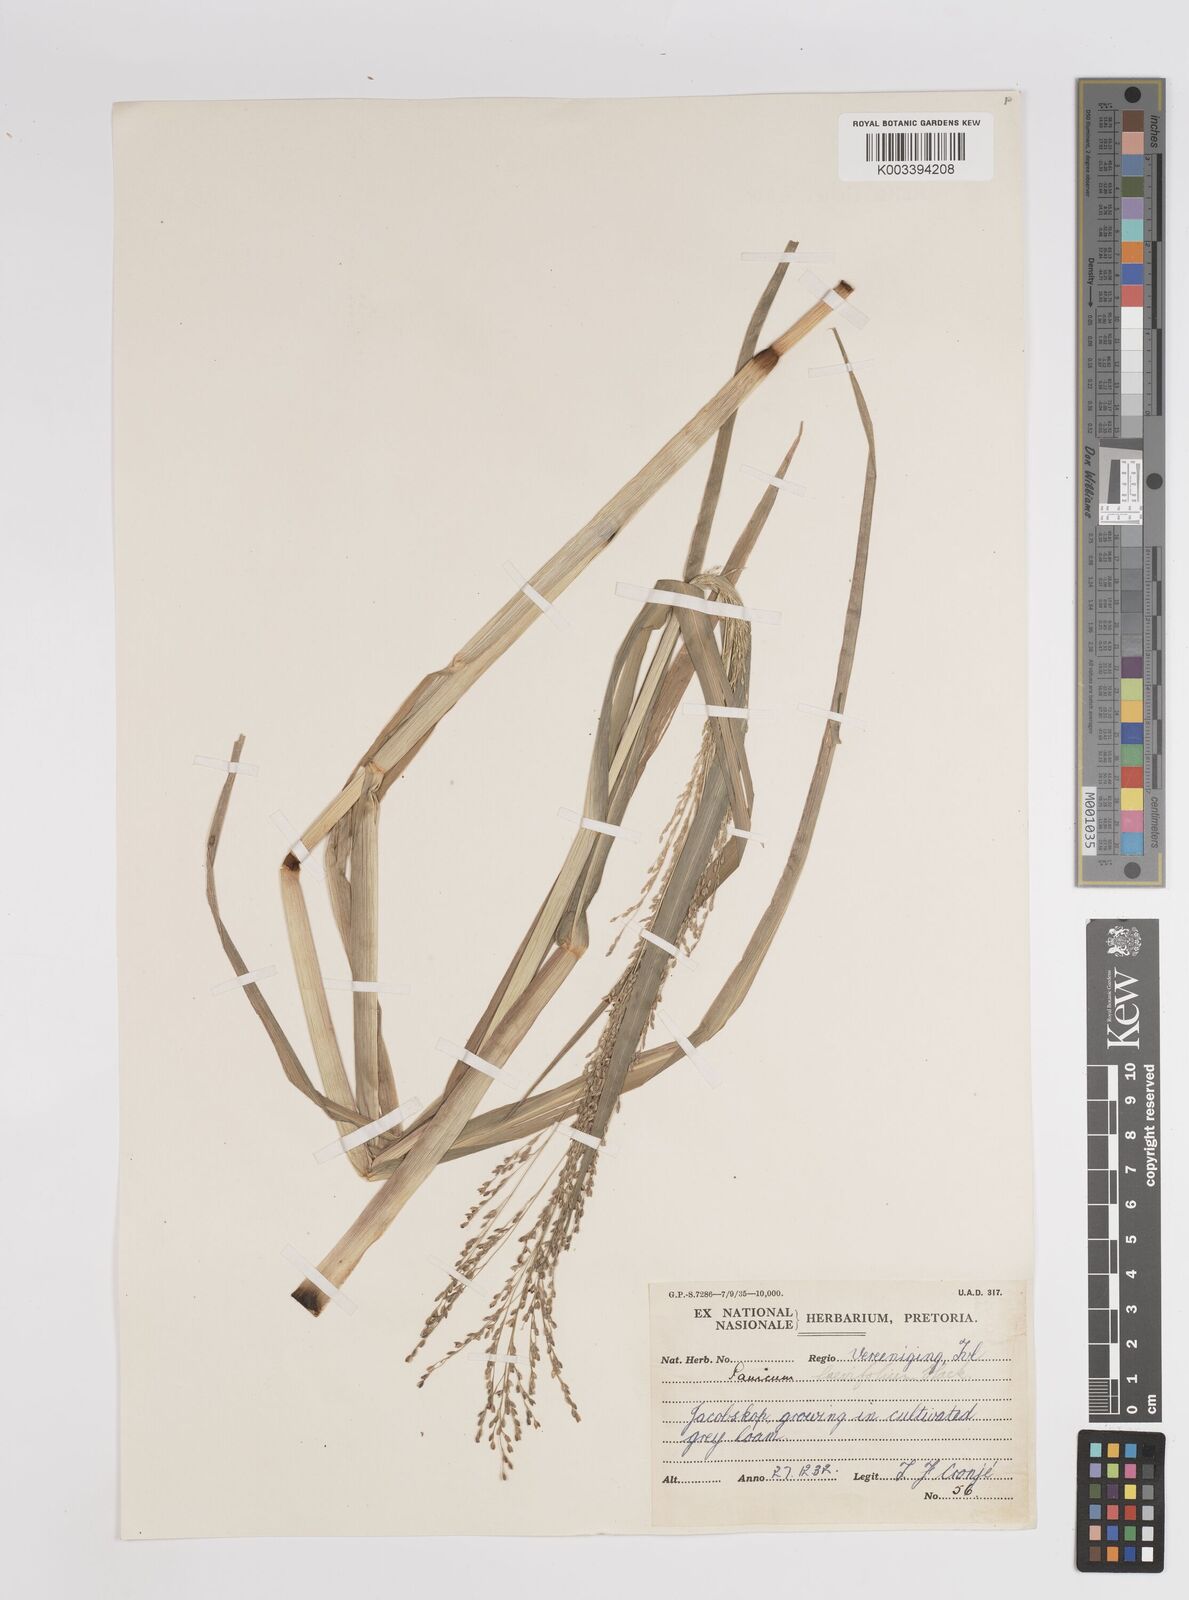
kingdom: Plantae
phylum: Tracheophyta
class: Liliopsida
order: Poales
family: Poaceae
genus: Panicum
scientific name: Panicum schinzii
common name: Sweet grass
